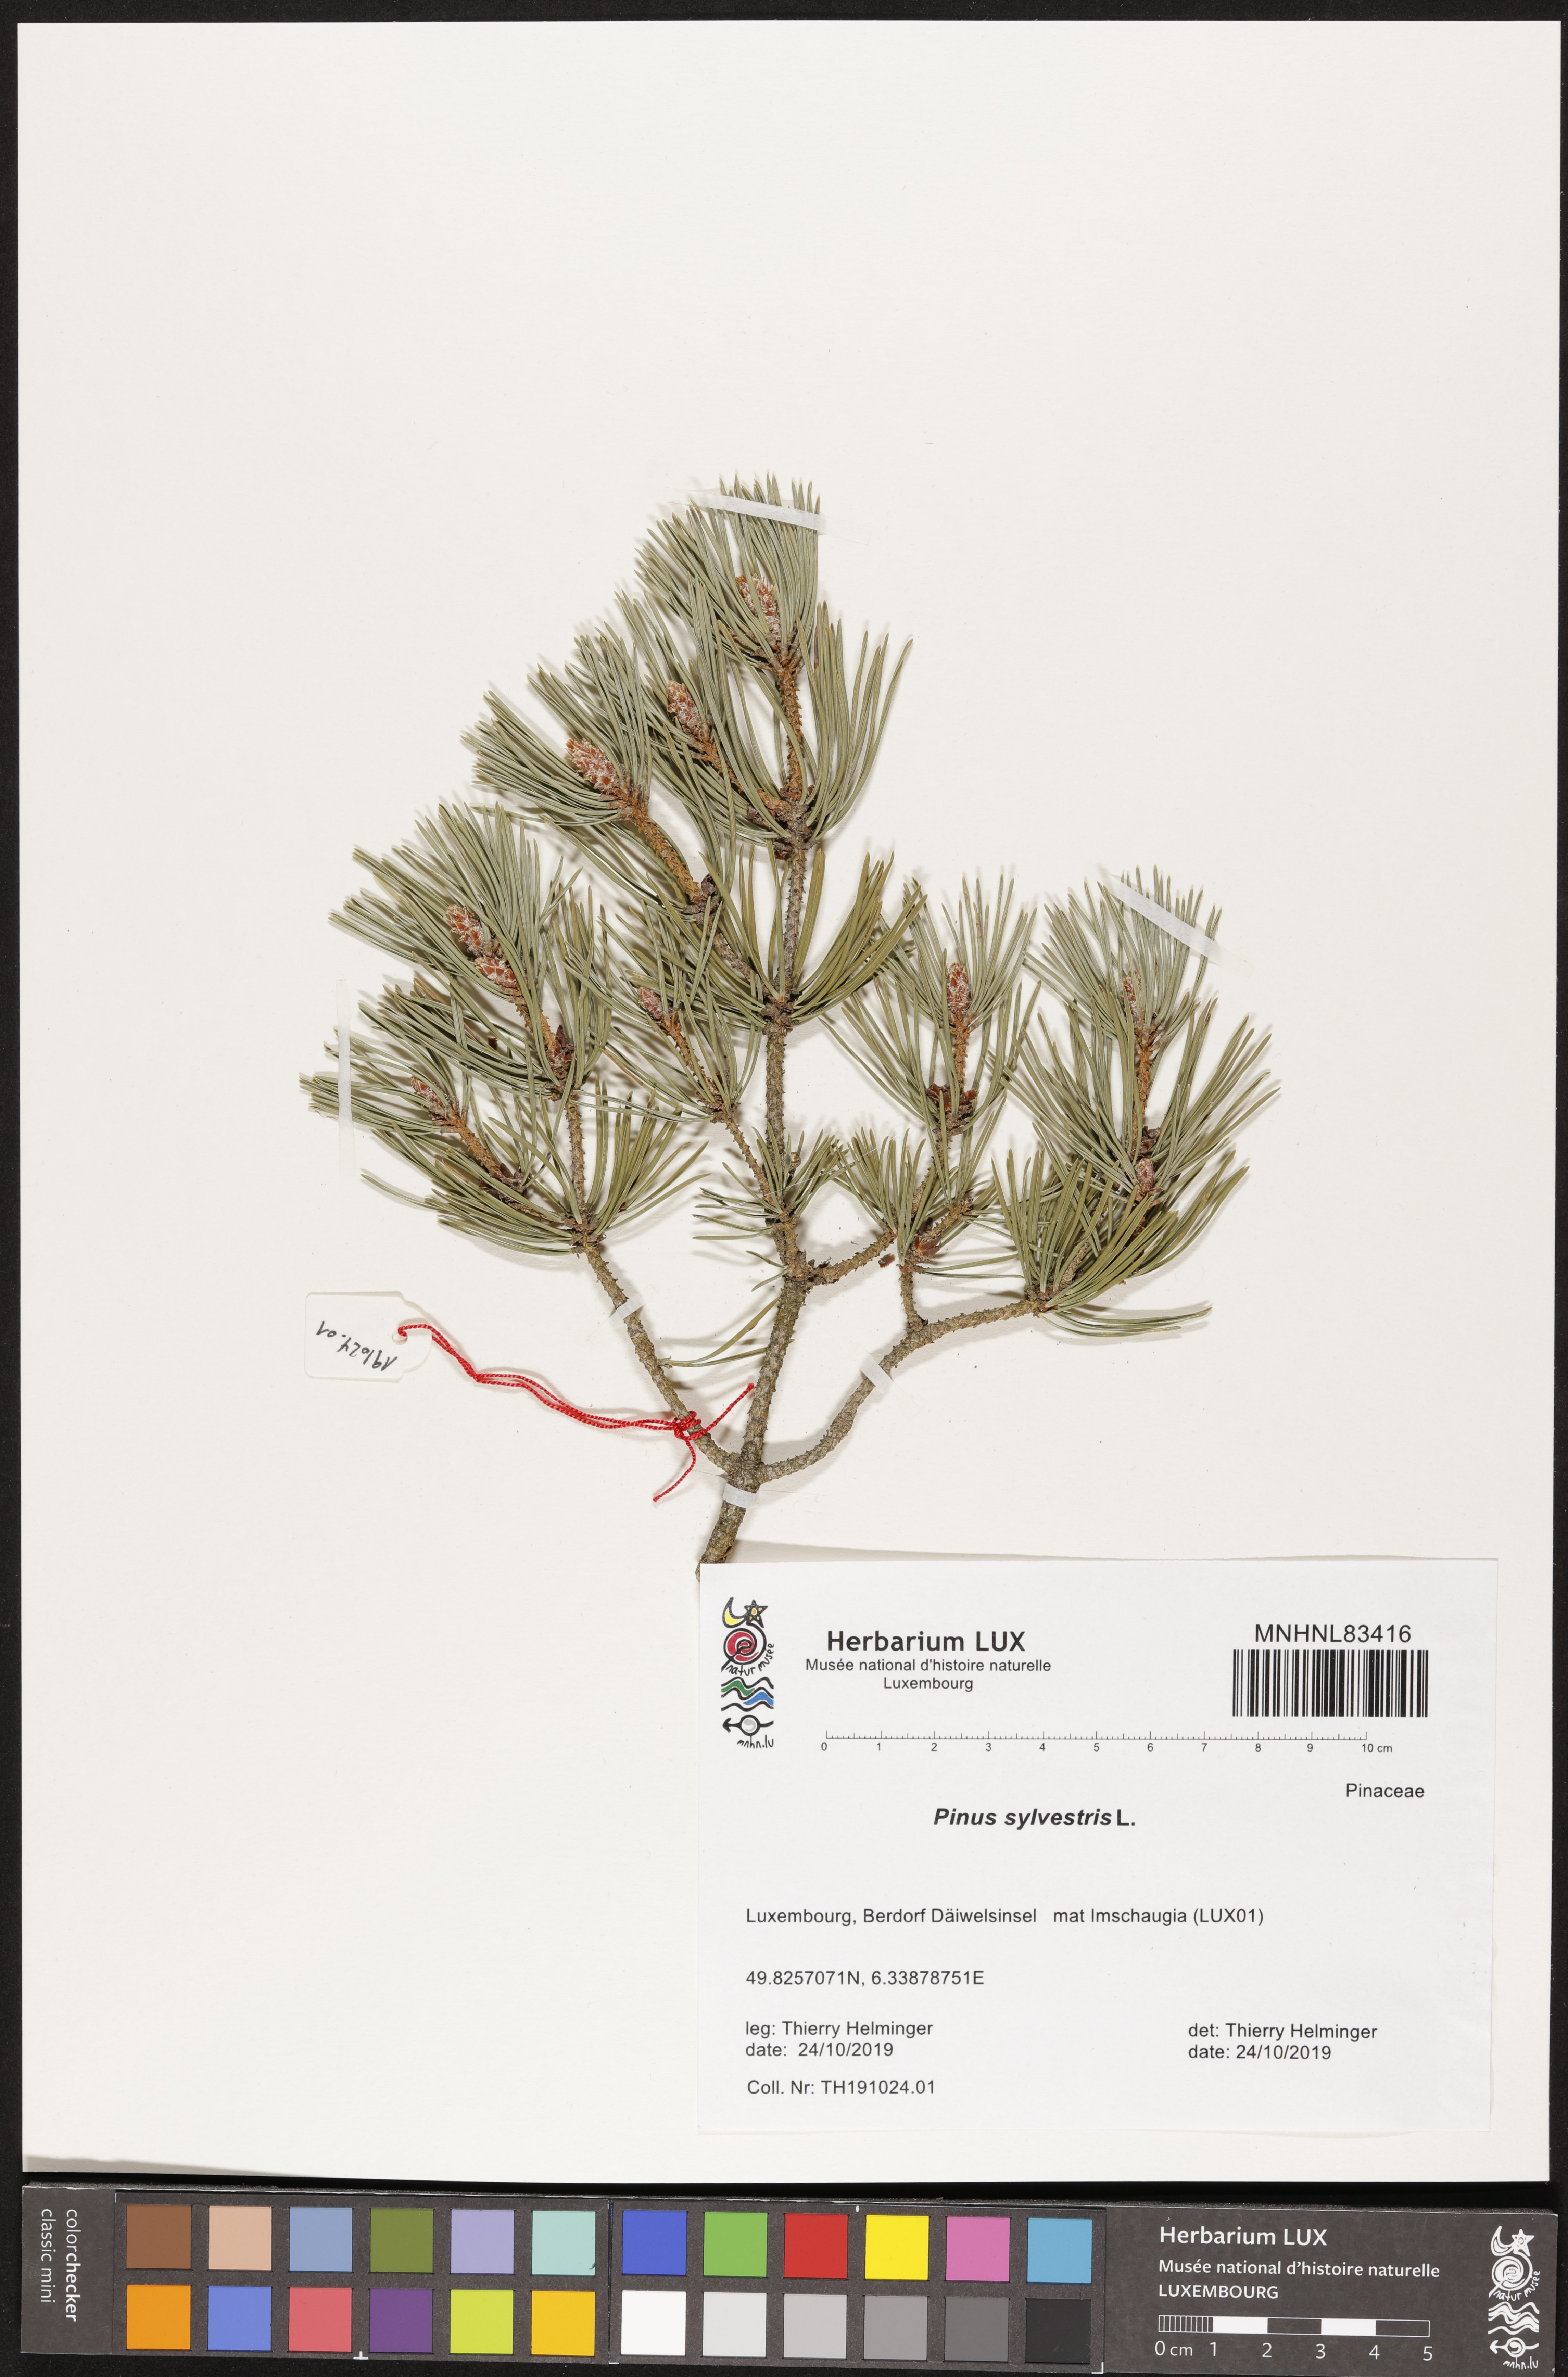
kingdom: Plantae
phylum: Tracheophyta
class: Pinopsida
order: Pinales
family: Pinaceae
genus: Pinus
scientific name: Pinus sylvestris
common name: Scots pine
